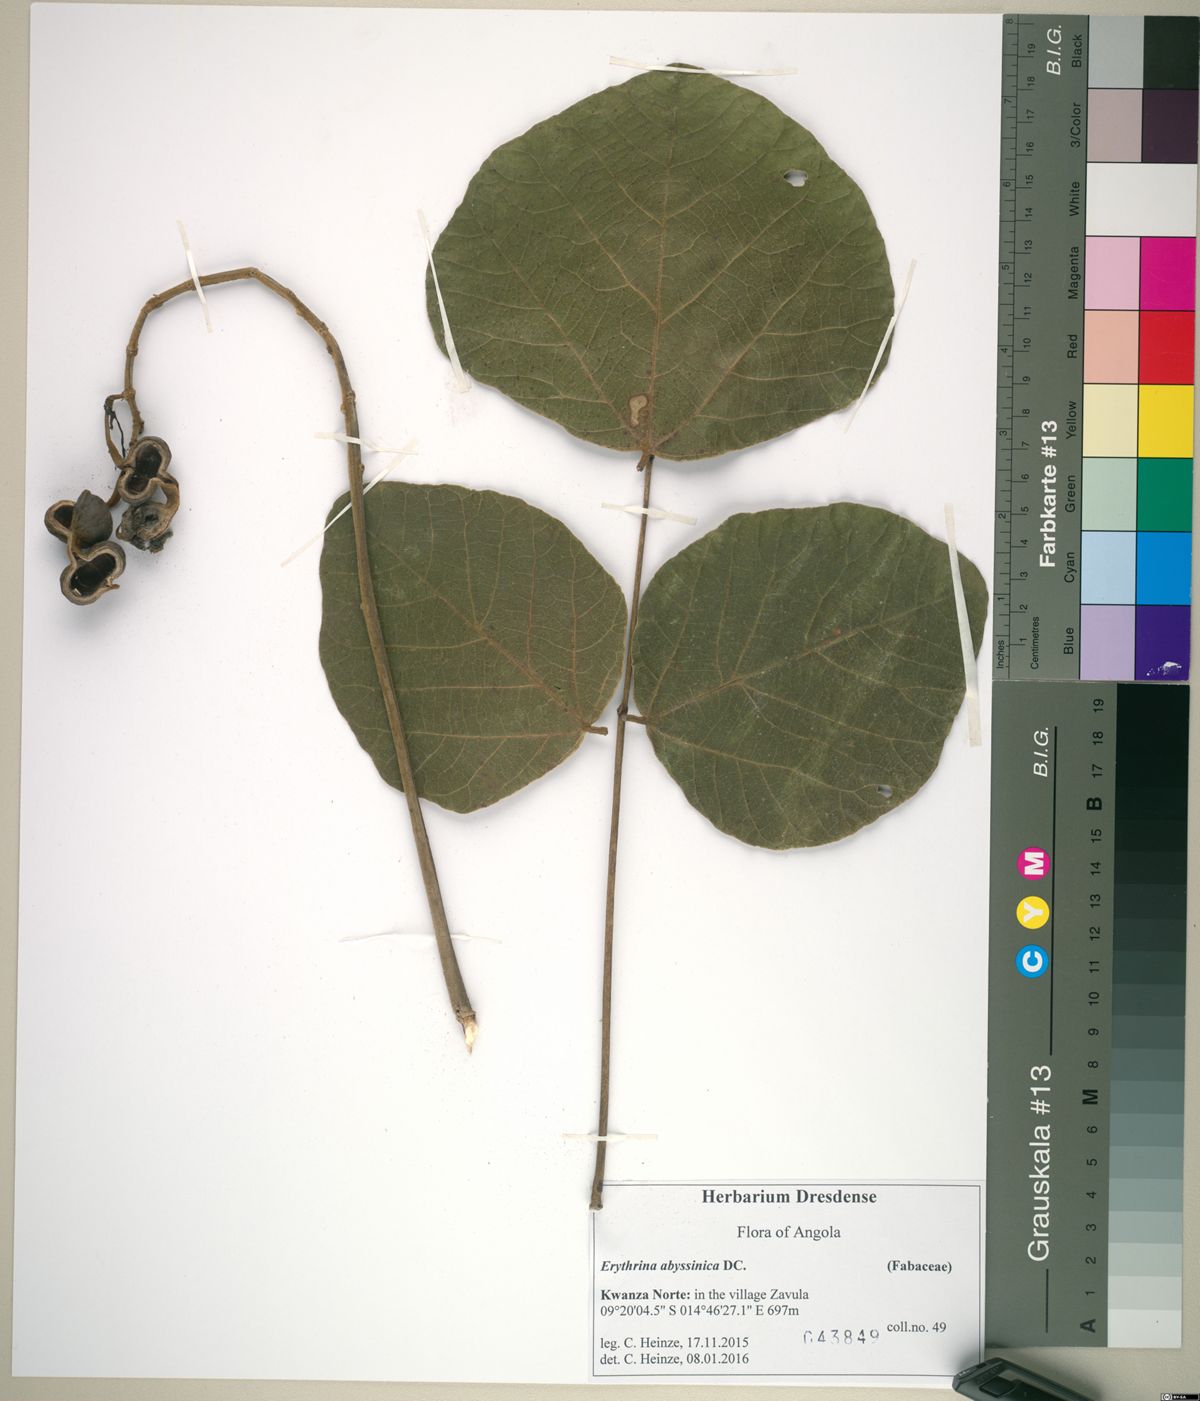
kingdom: Plantae
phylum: Tracheophyta
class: Magnoliopsida
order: Fabales
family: Fabaceae
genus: Erythrina
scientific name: Erythrina abyssinica
